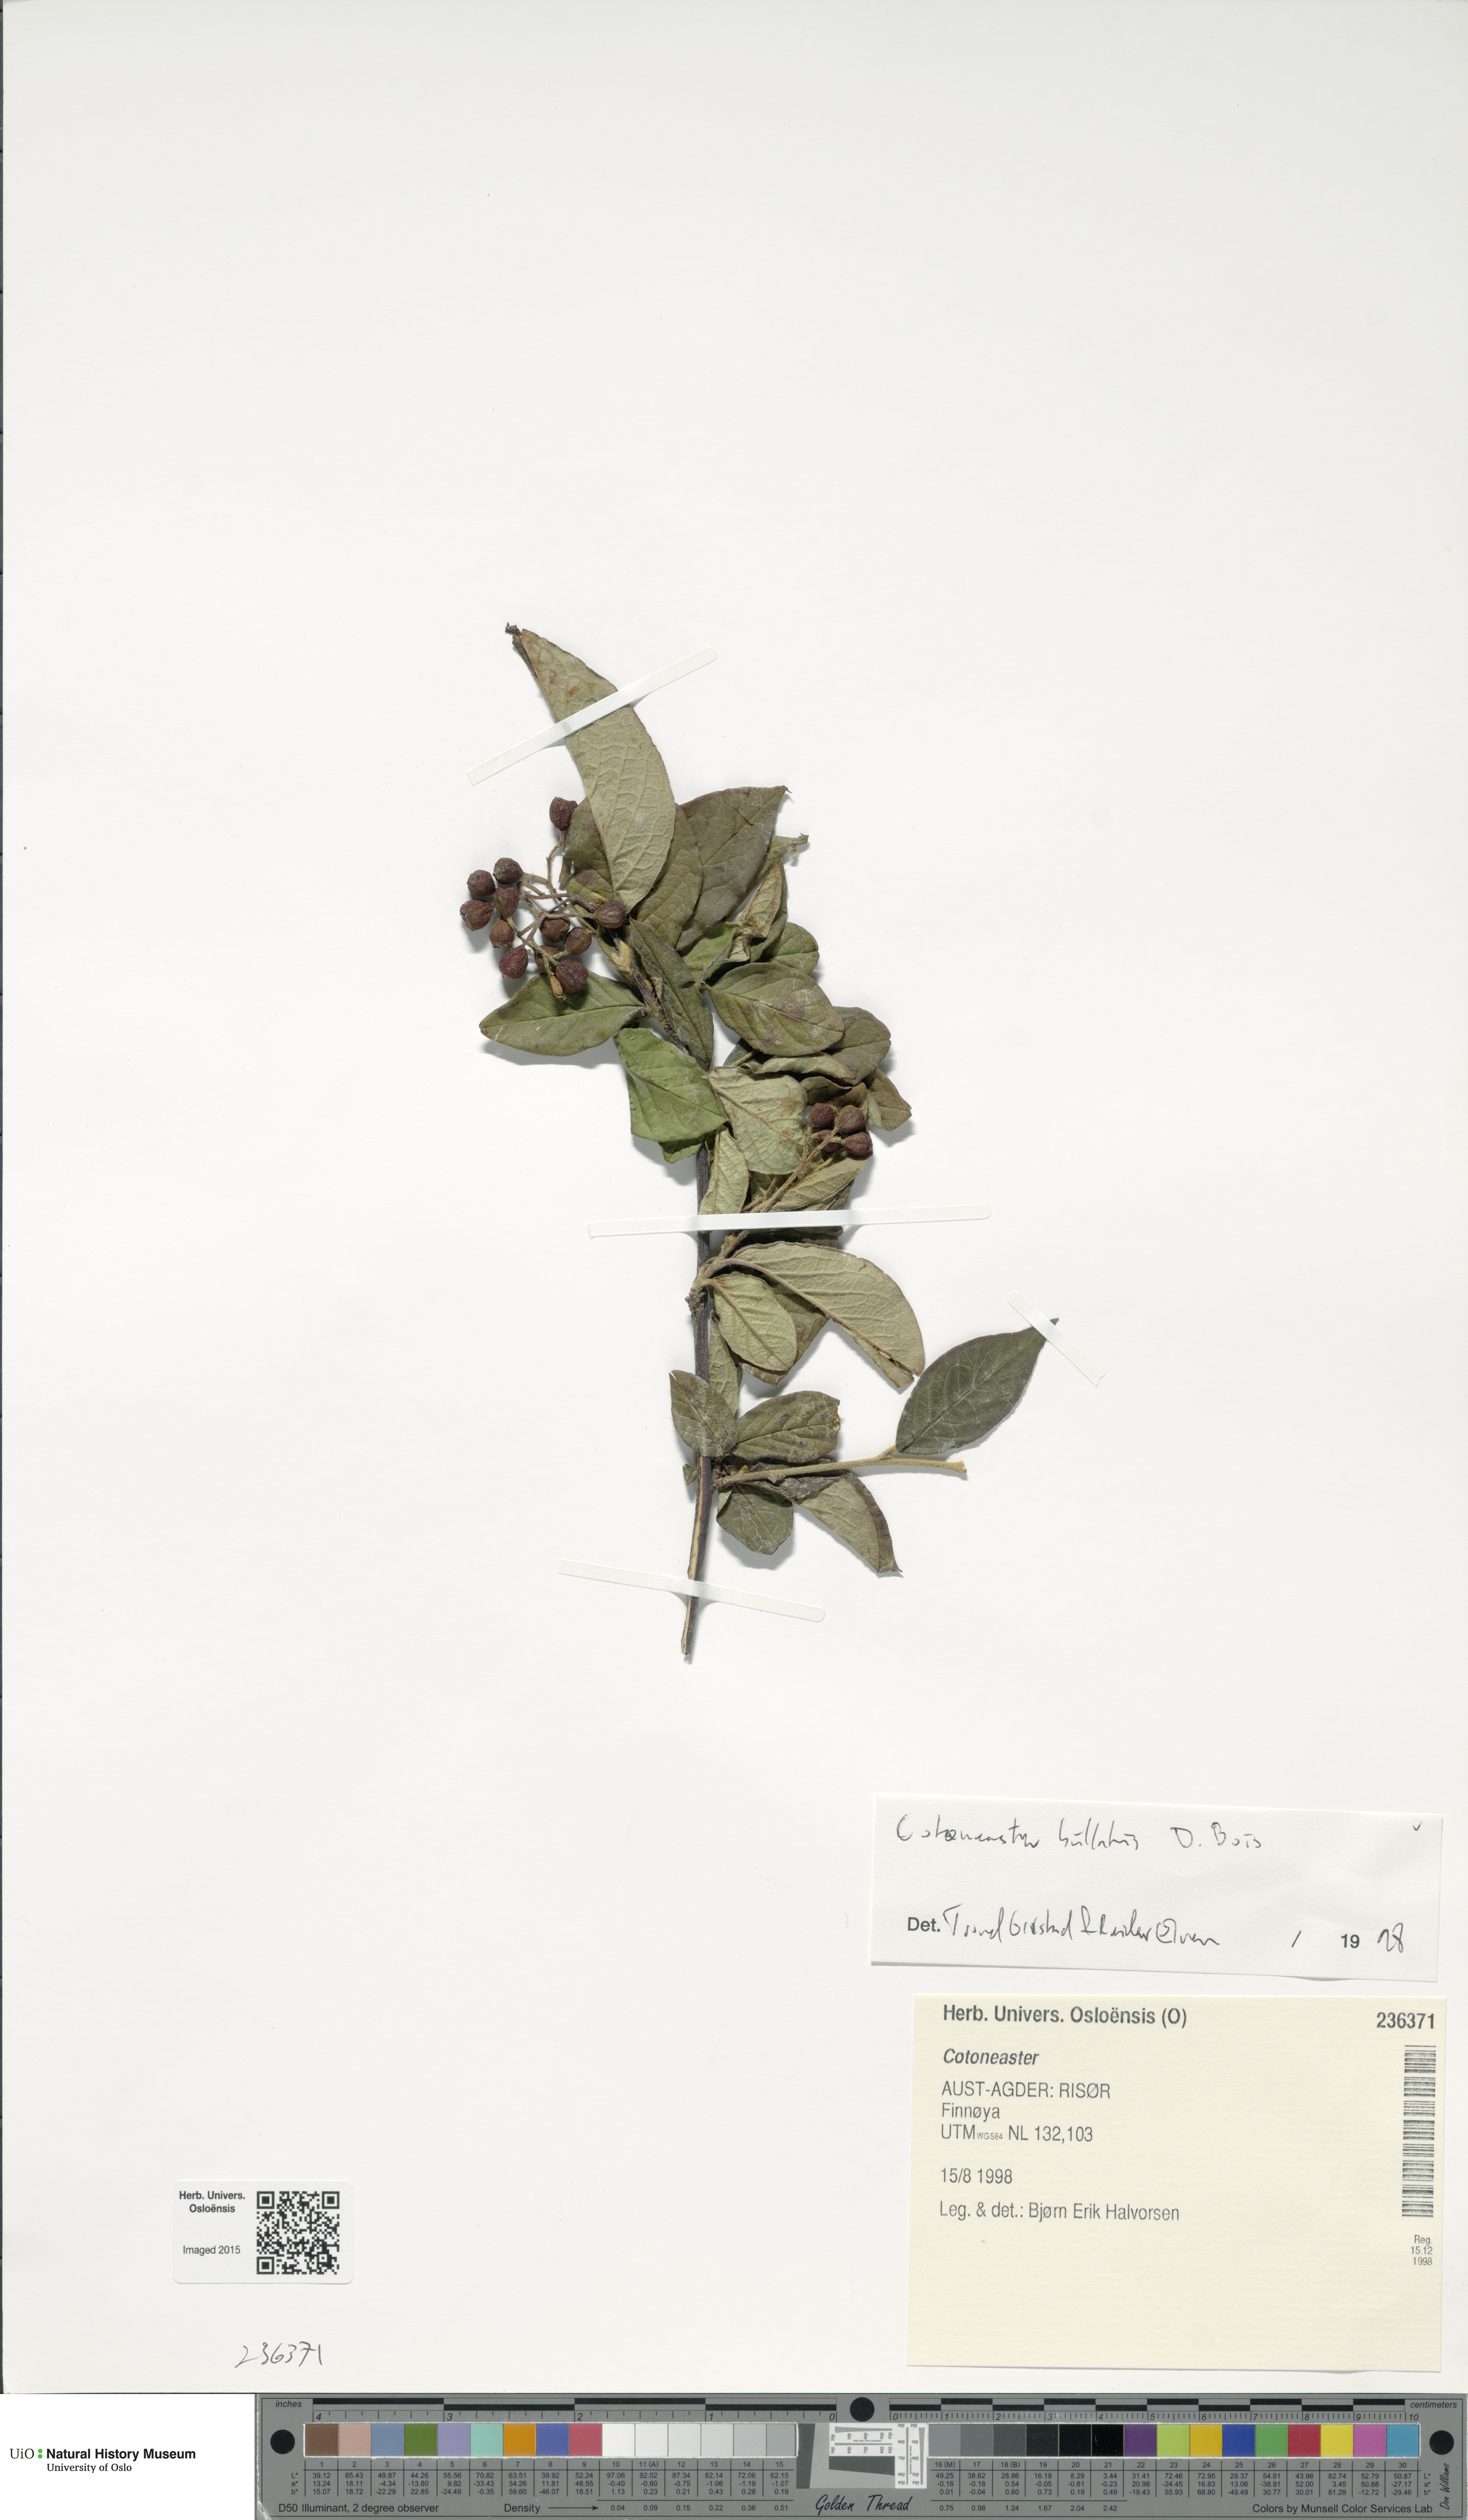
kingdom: Plantae
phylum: Tracheophyta
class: Magnoliopsida
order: Rosales
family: Rosaceae
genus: Cotoneaster
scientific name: Cotoneaster bullatus
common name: Hollyberry cotoneaster
